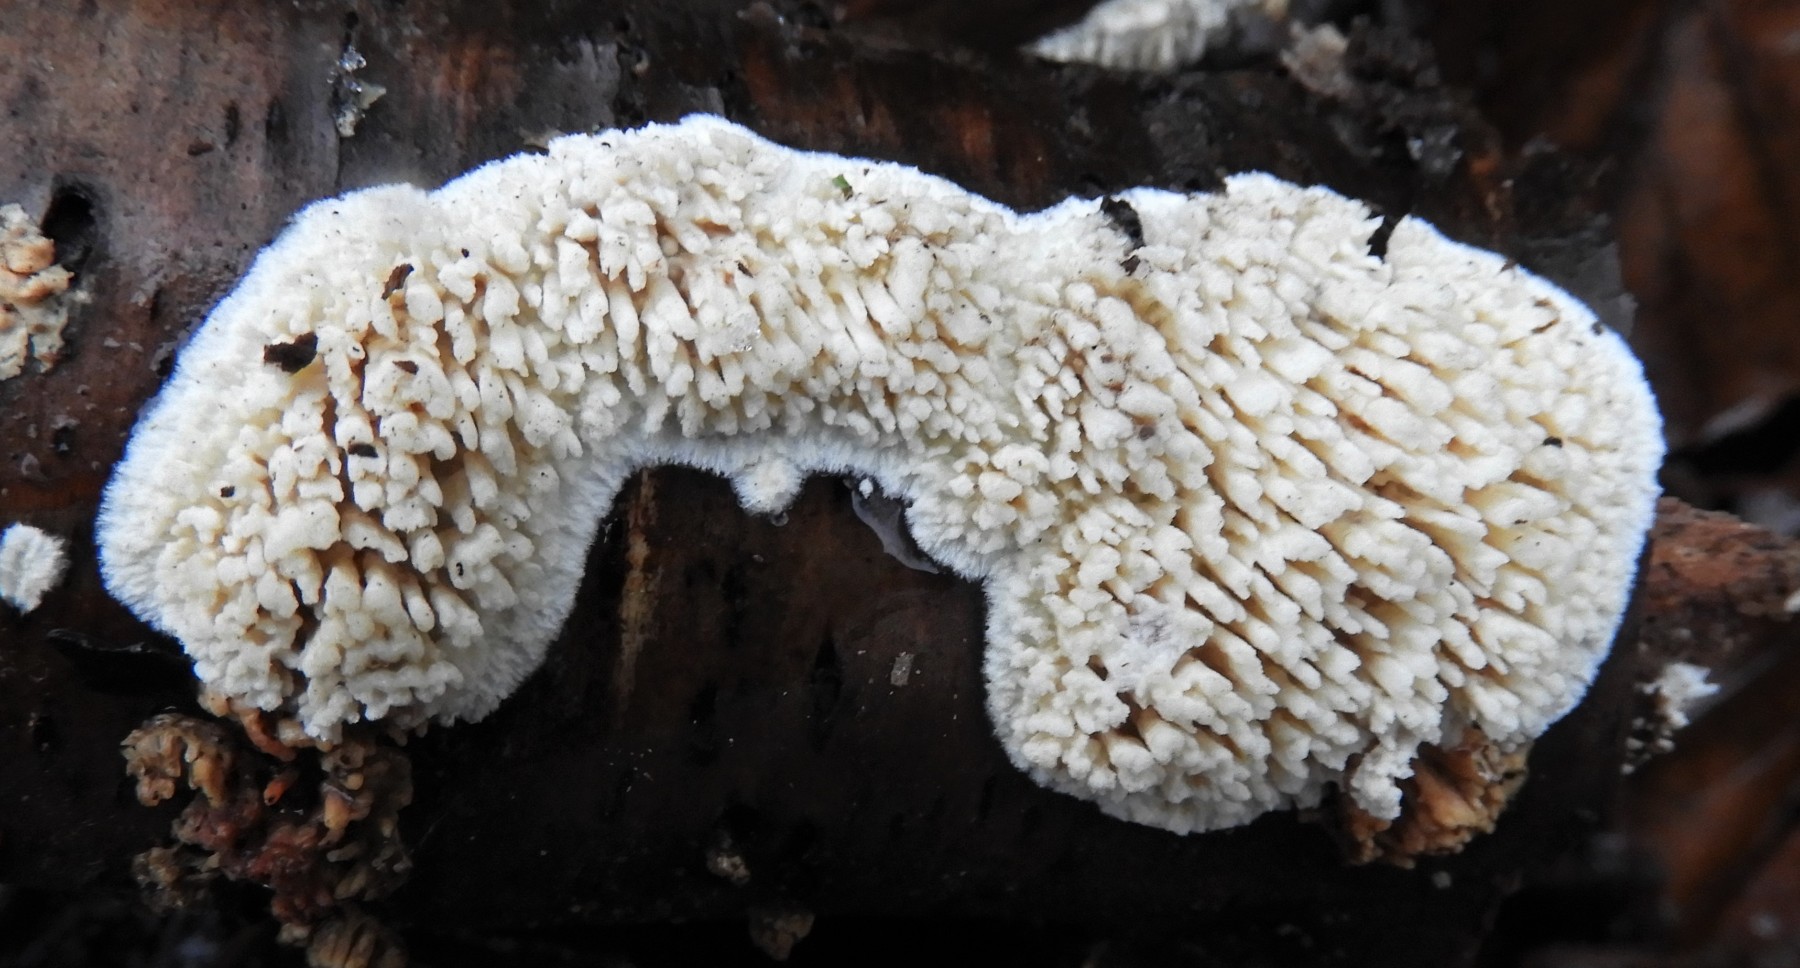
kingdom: Fungi
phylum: Basidiomycota
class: Agaricomycetes
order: Hymenochaetales
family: Schizoporaceae
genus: Xylodon
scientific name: Xylodon radula
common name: grovtandet kalkskind
